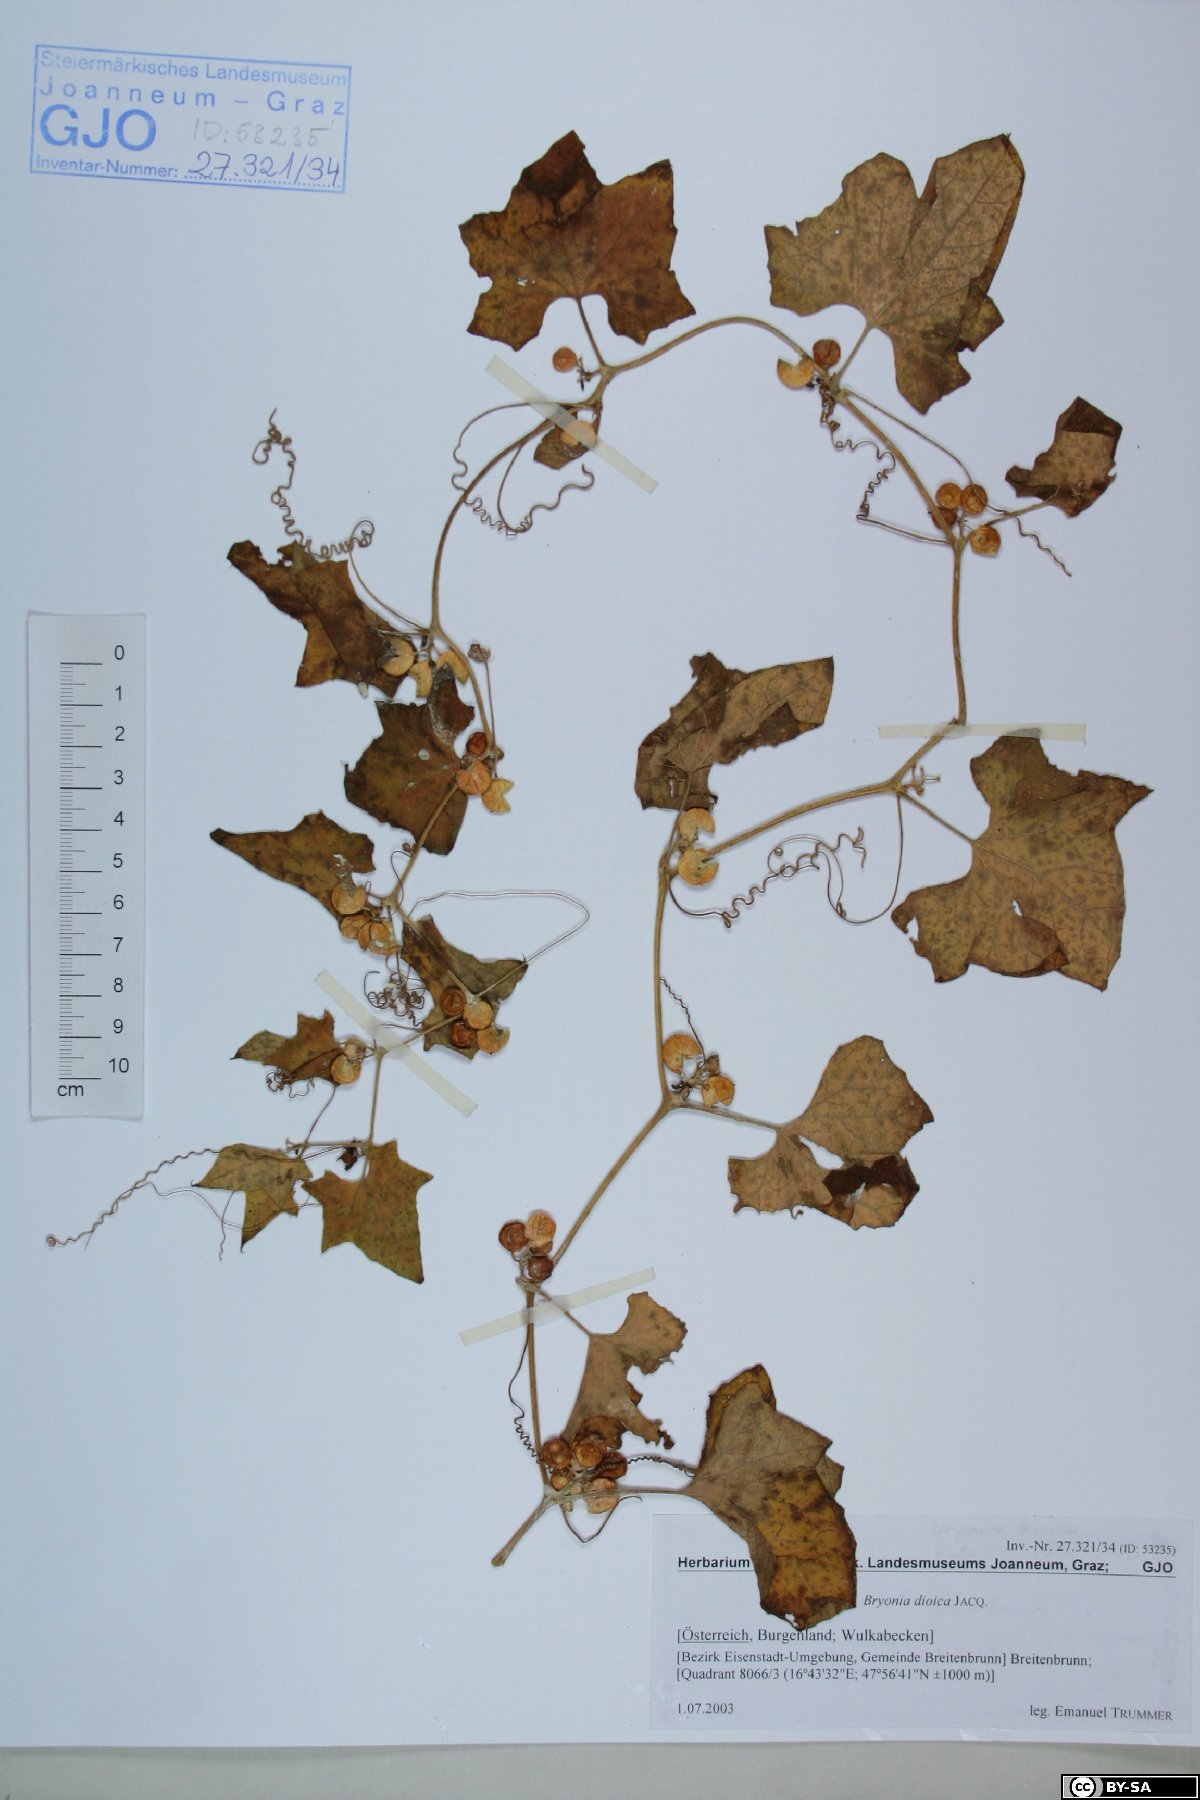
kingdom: Plantae
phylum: Tracheophyta
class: Magnoliopsida
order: Cucurbitales
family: Cucurbitaceae
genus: Bryonia
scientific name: Bryonia dioica
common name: White bryony
